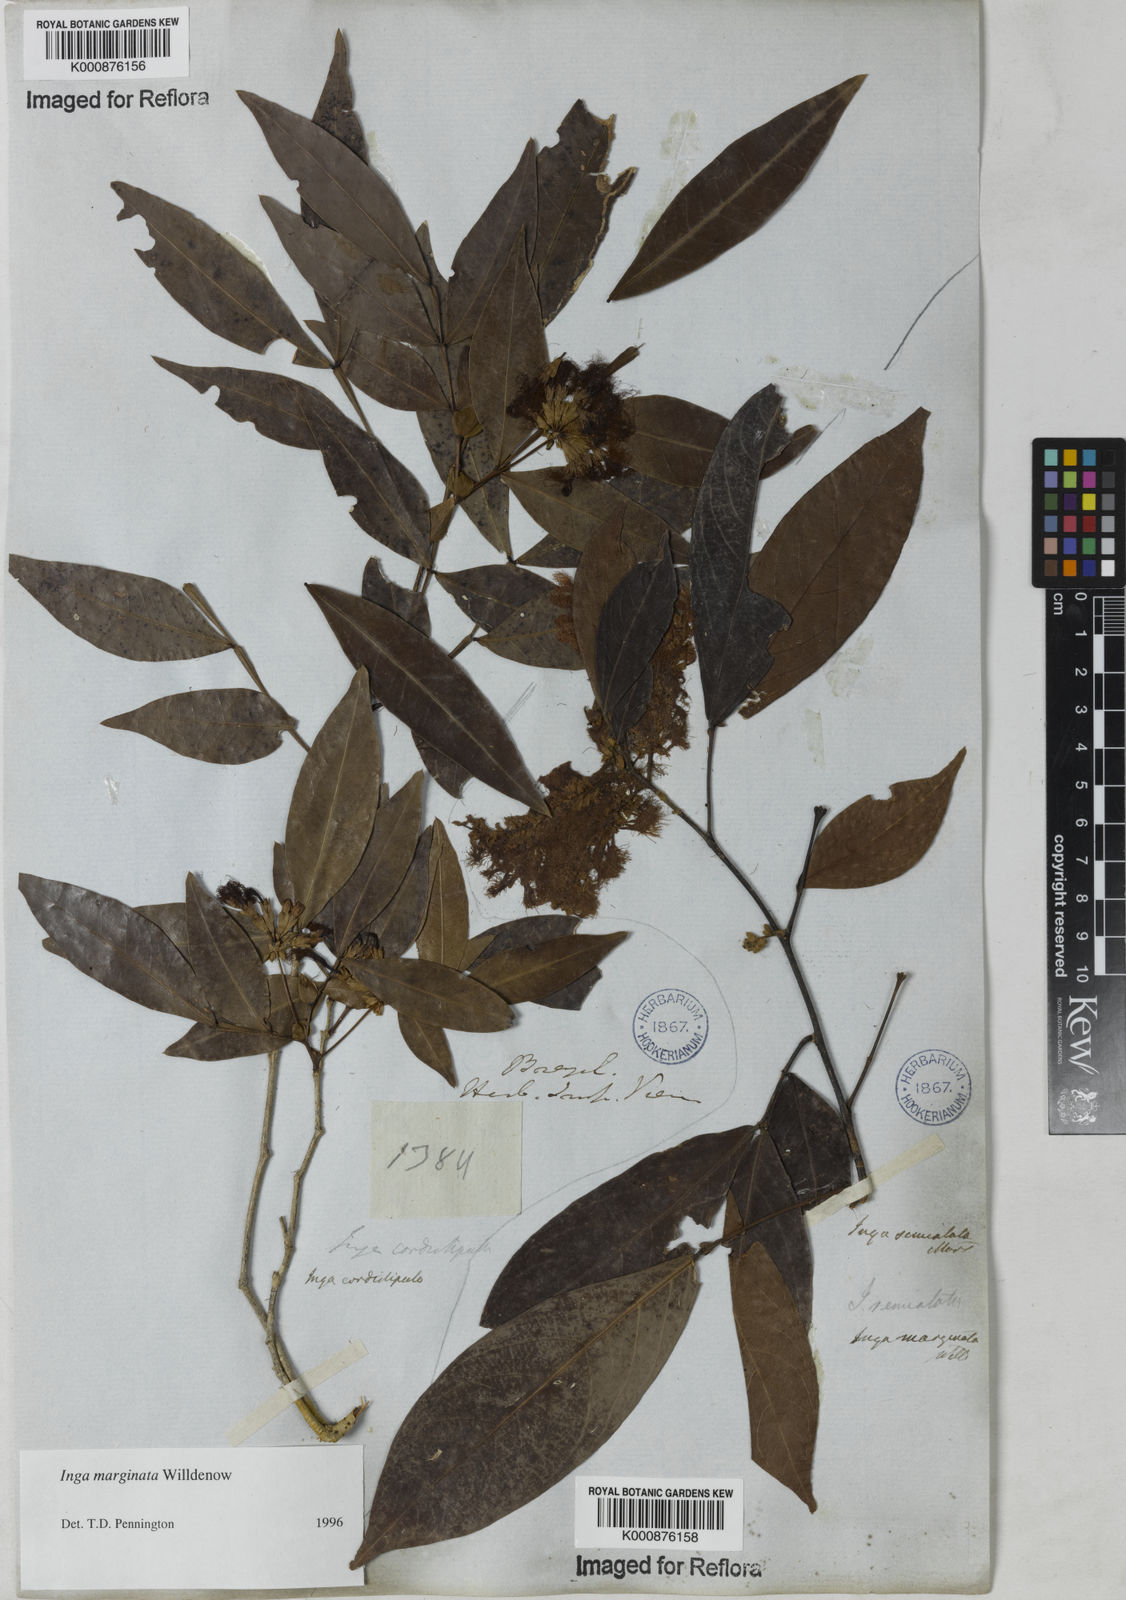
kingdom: Plantae
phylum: Tracheophyta
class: Magnoliopsida
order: Fabales
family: Fabaceae
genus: Inga
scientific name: Inga marginata
